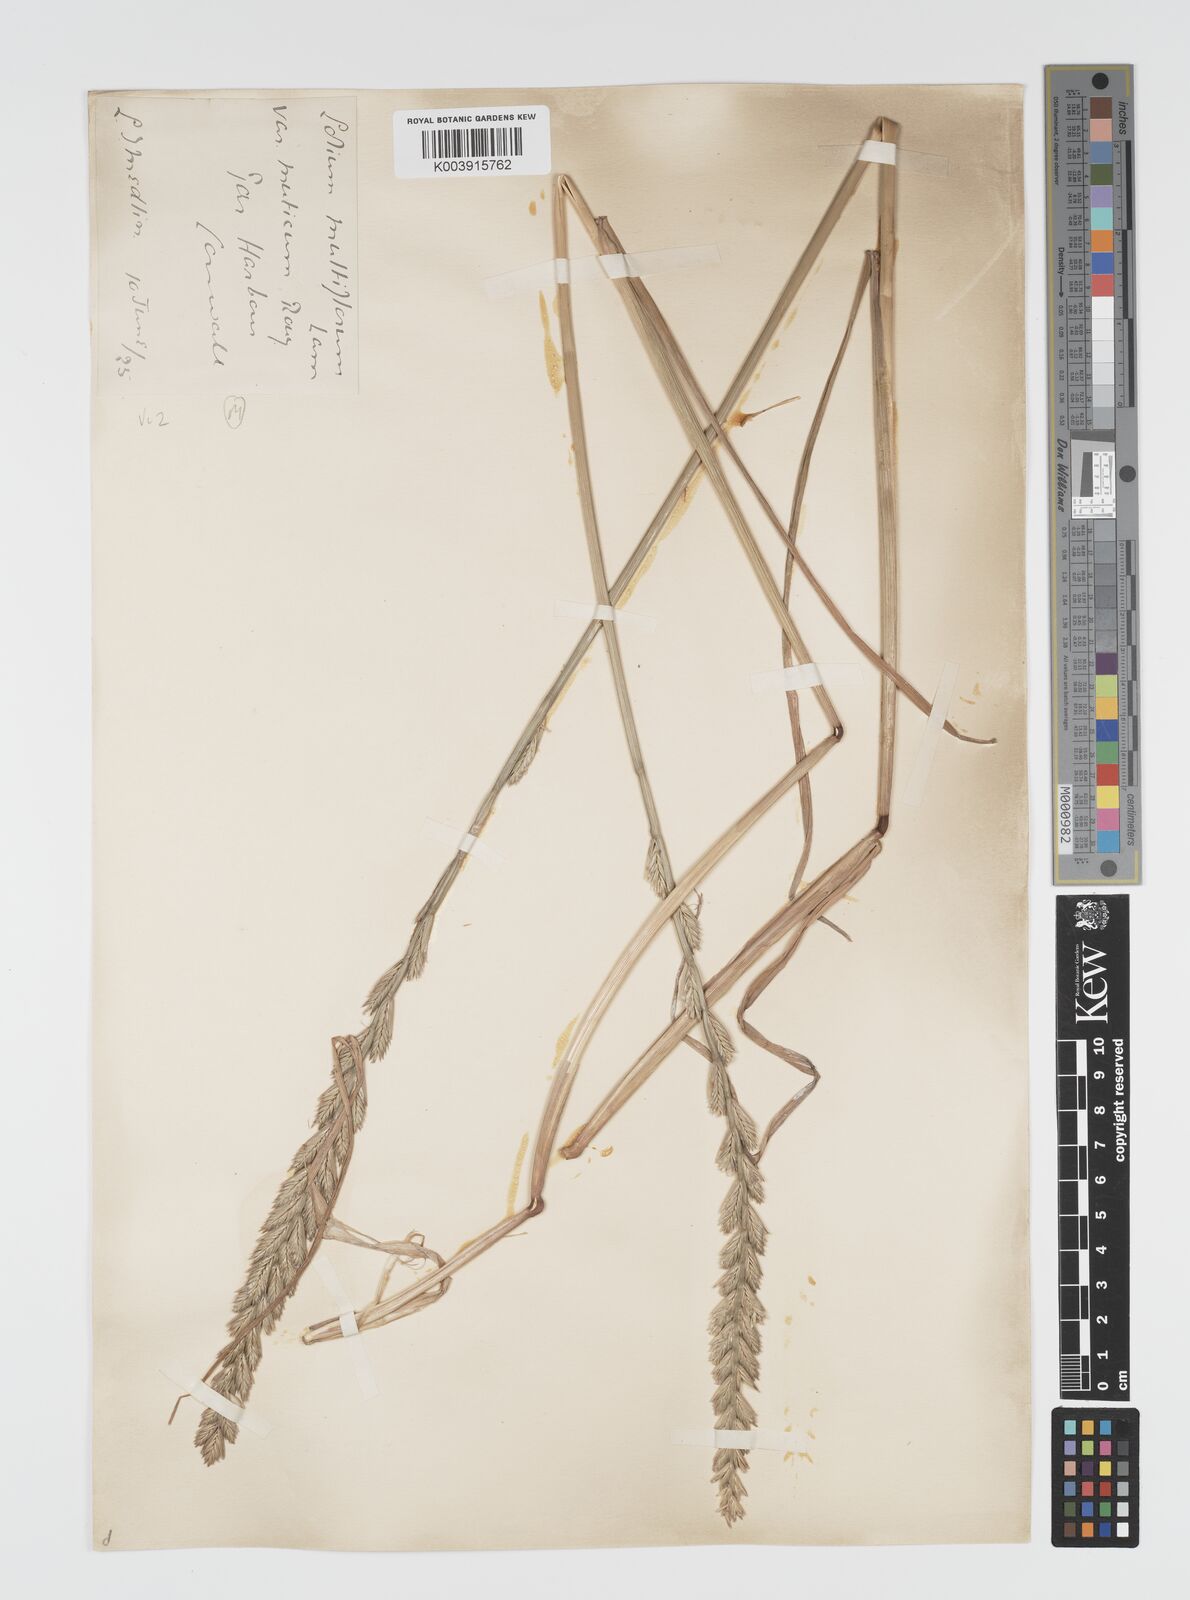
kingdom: Plantae
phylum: Tracheophyta
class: Liliopsida
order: Poales
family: Poaceae
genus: Lolium
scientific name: Lolium multiflorum
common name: Annual ryegrass
